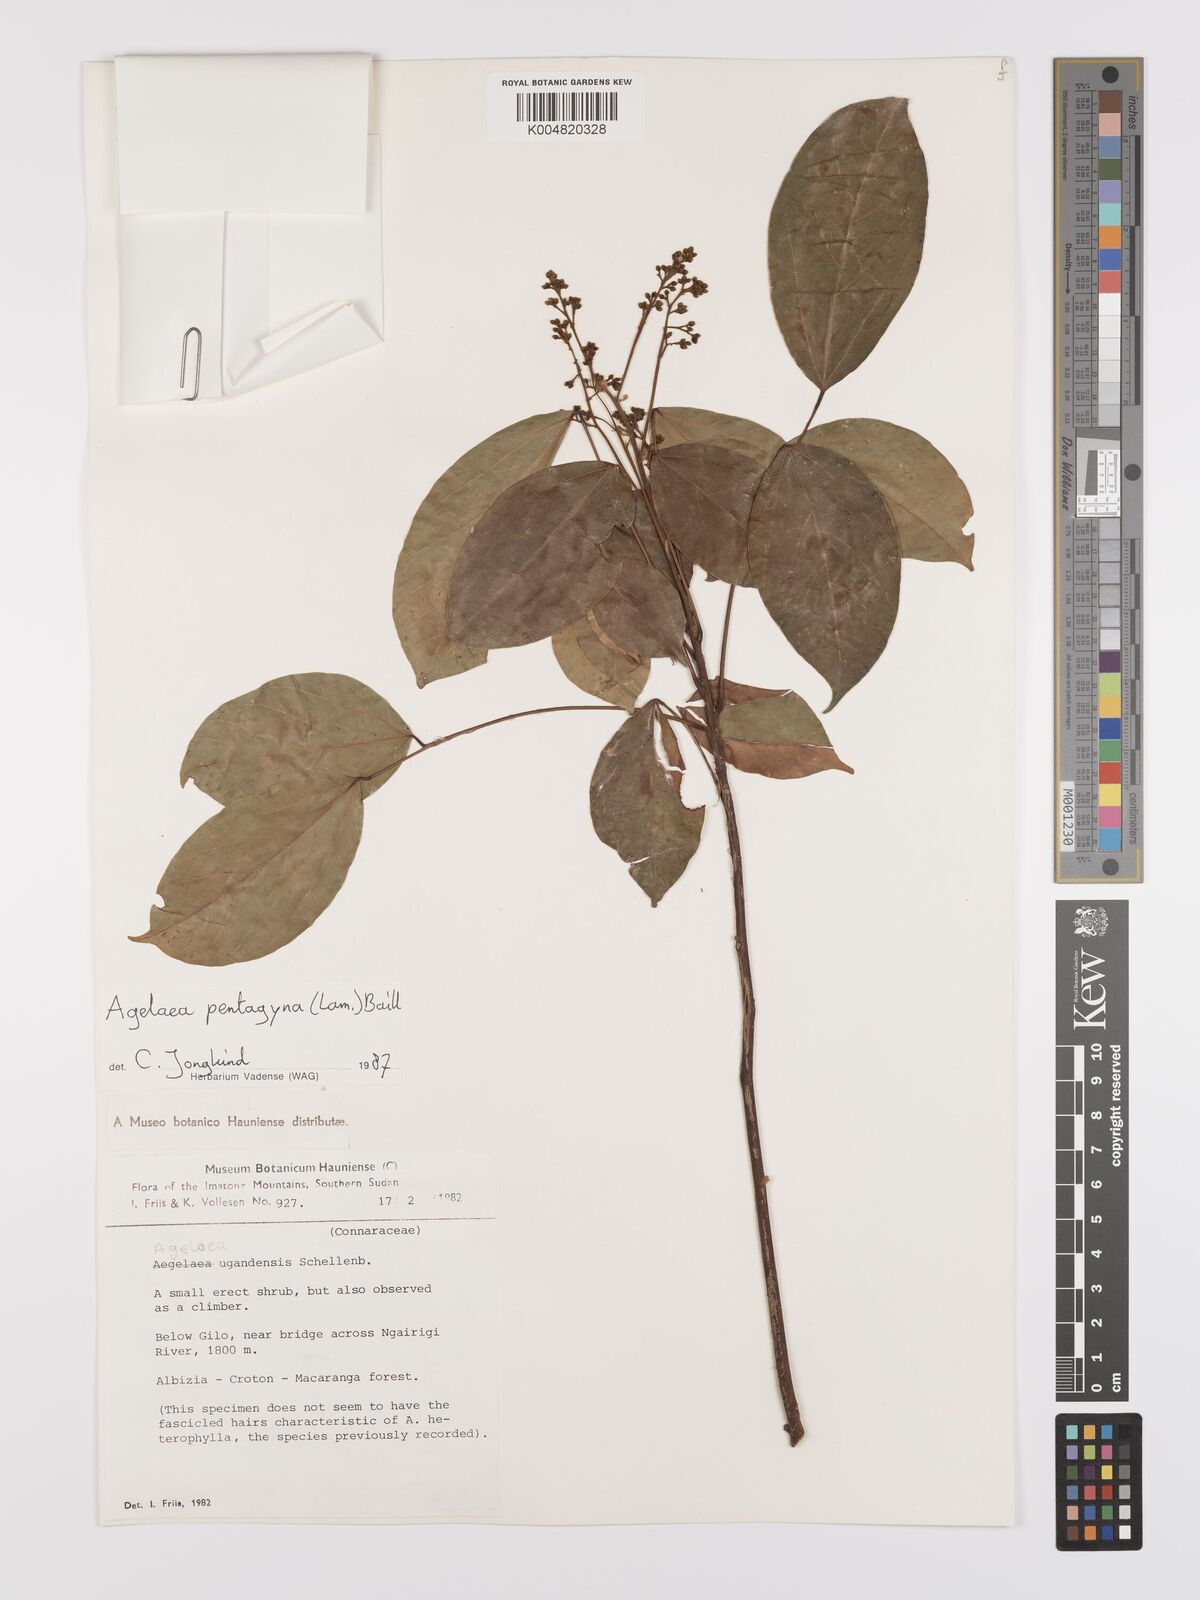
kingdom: Plantae
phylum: Tracheophyta
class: Magnoliopsida
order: Oxalidales
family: Connaraceae
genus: Agelaea
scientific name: Agelaea pentagyna
